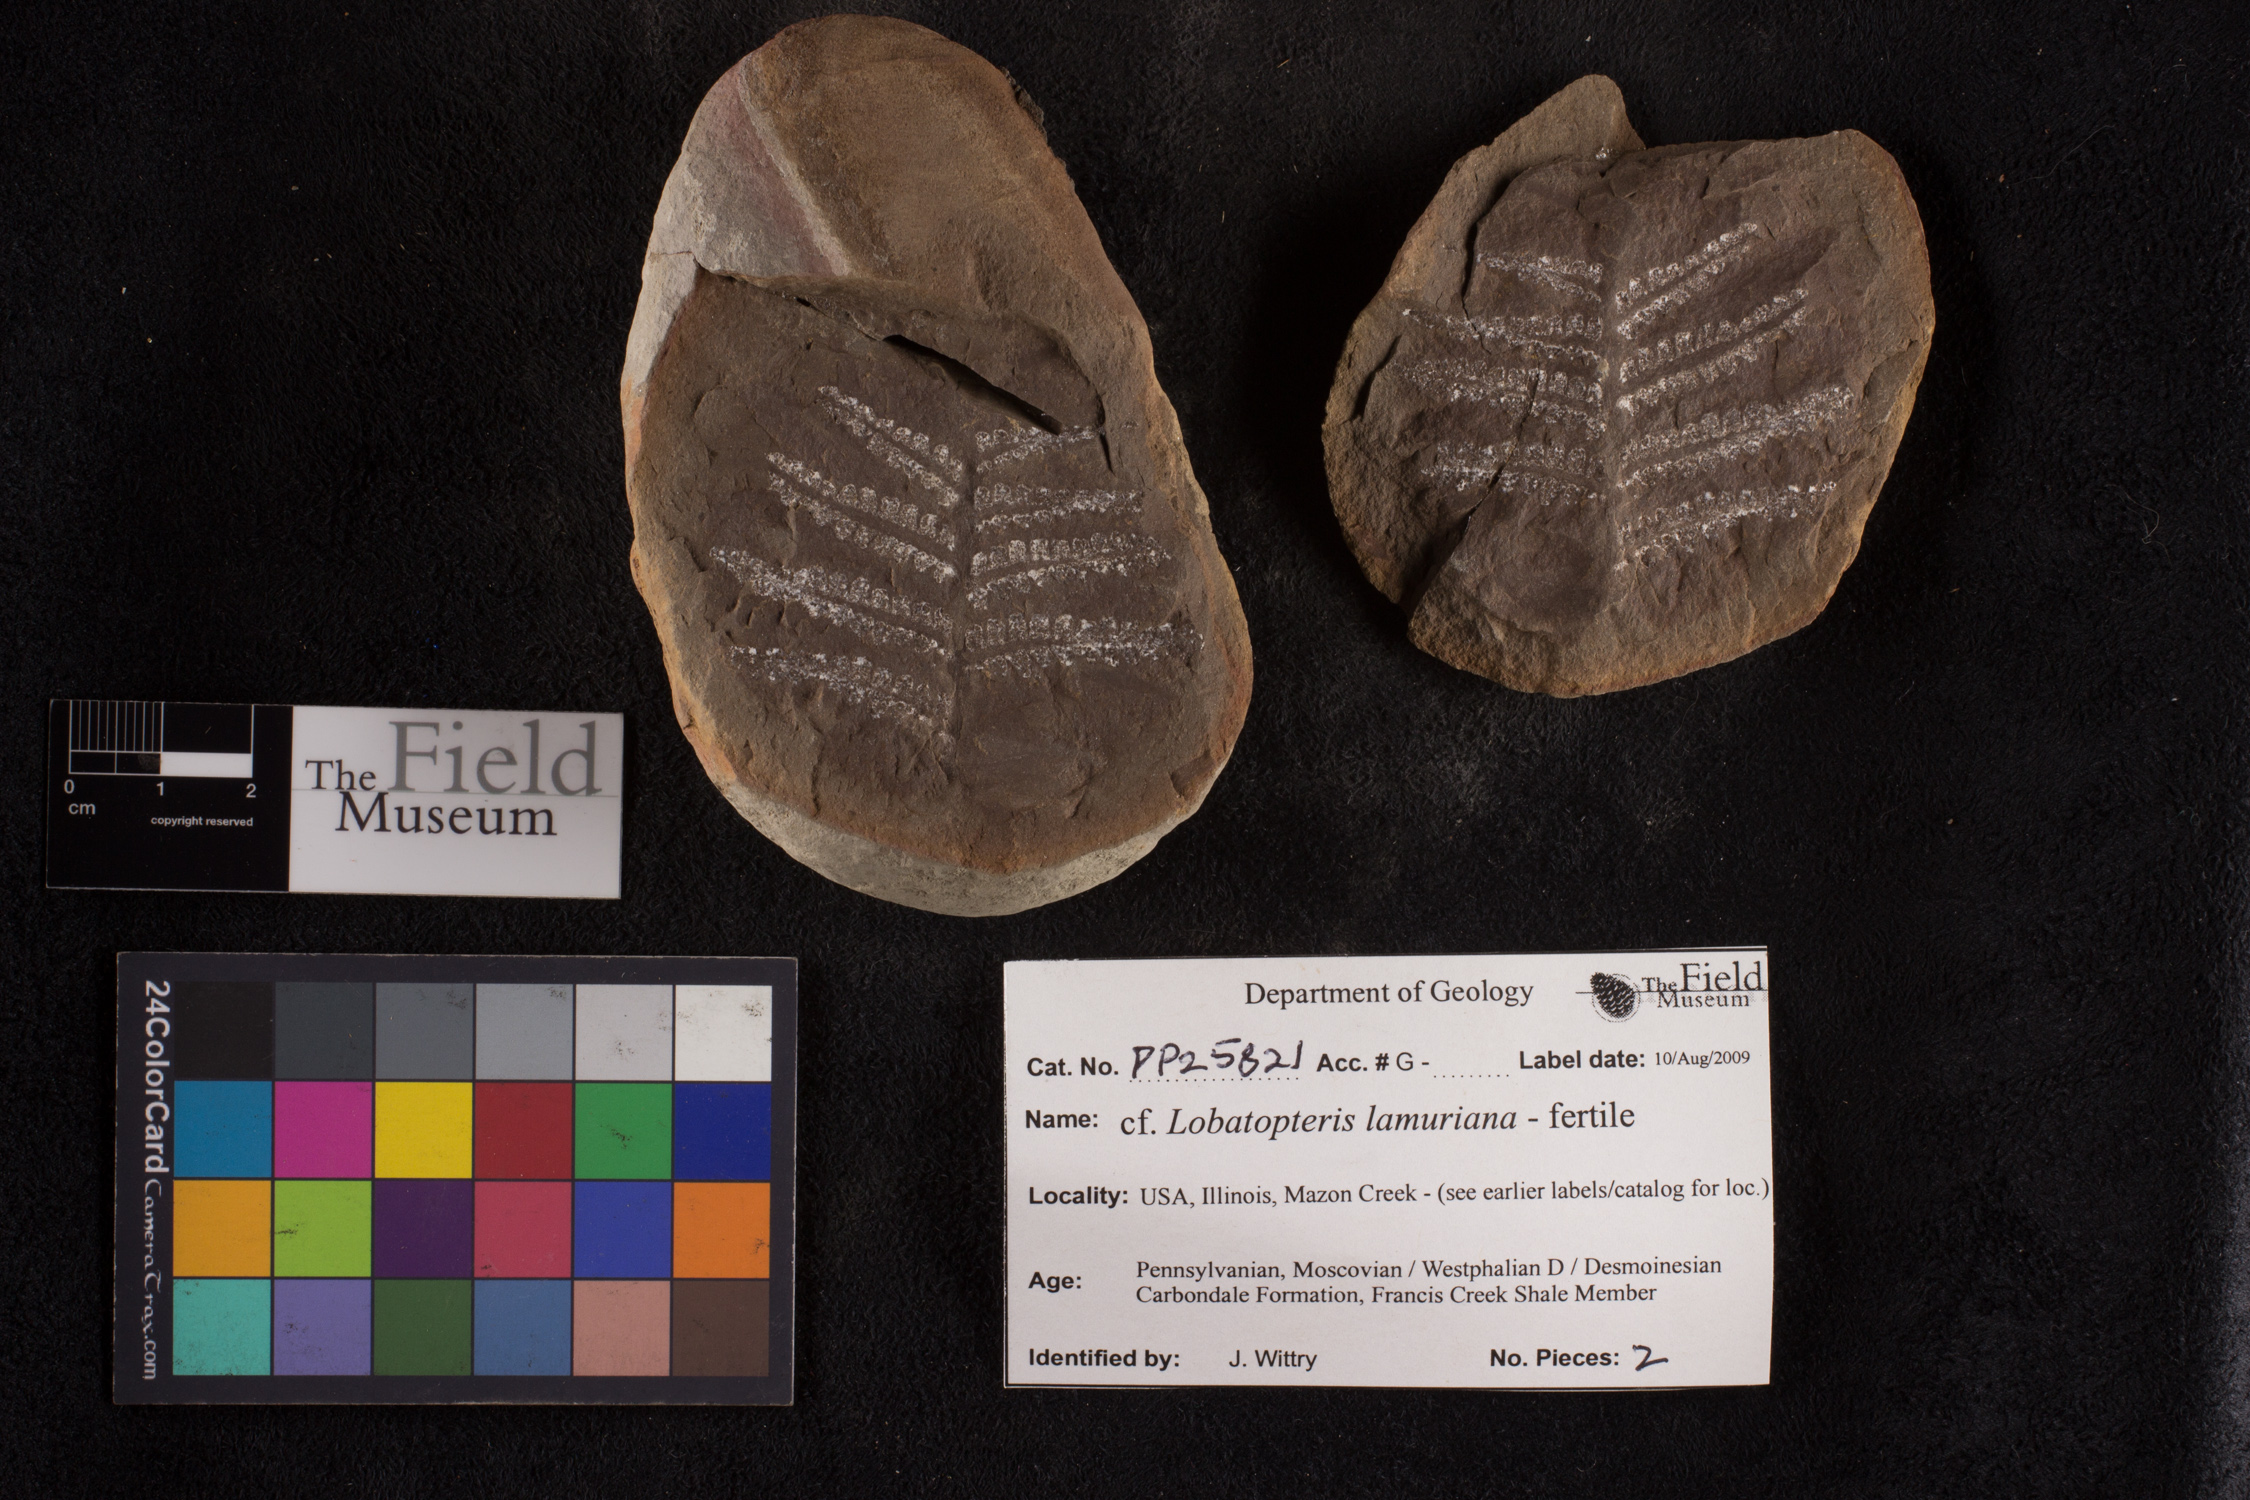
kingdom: Plantae
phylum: Tracheophyta
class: Polypodiopsida
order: Marattiales
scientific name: Marattiales
